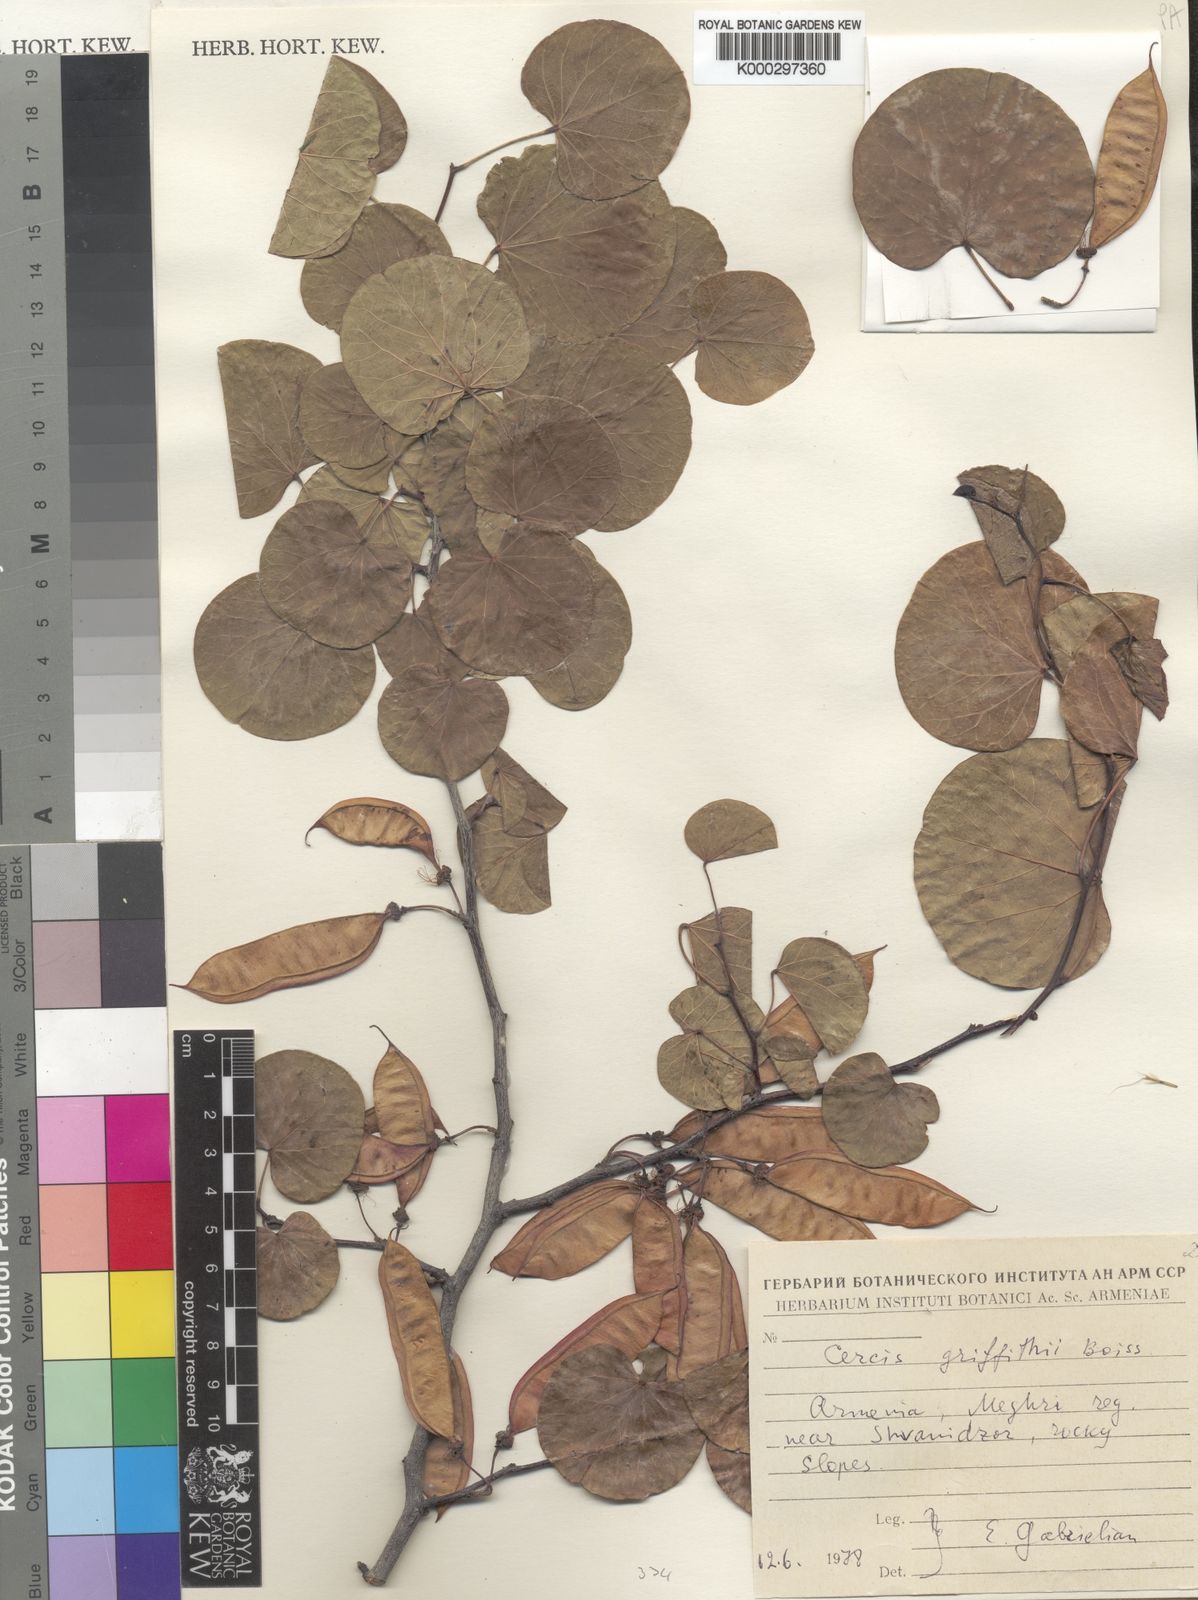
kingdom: Plantae
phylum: Tracheophyta
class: Magnoliopsida
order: Fabales
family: Fabaceae
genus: Cercis
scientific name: Cercis griffithii
